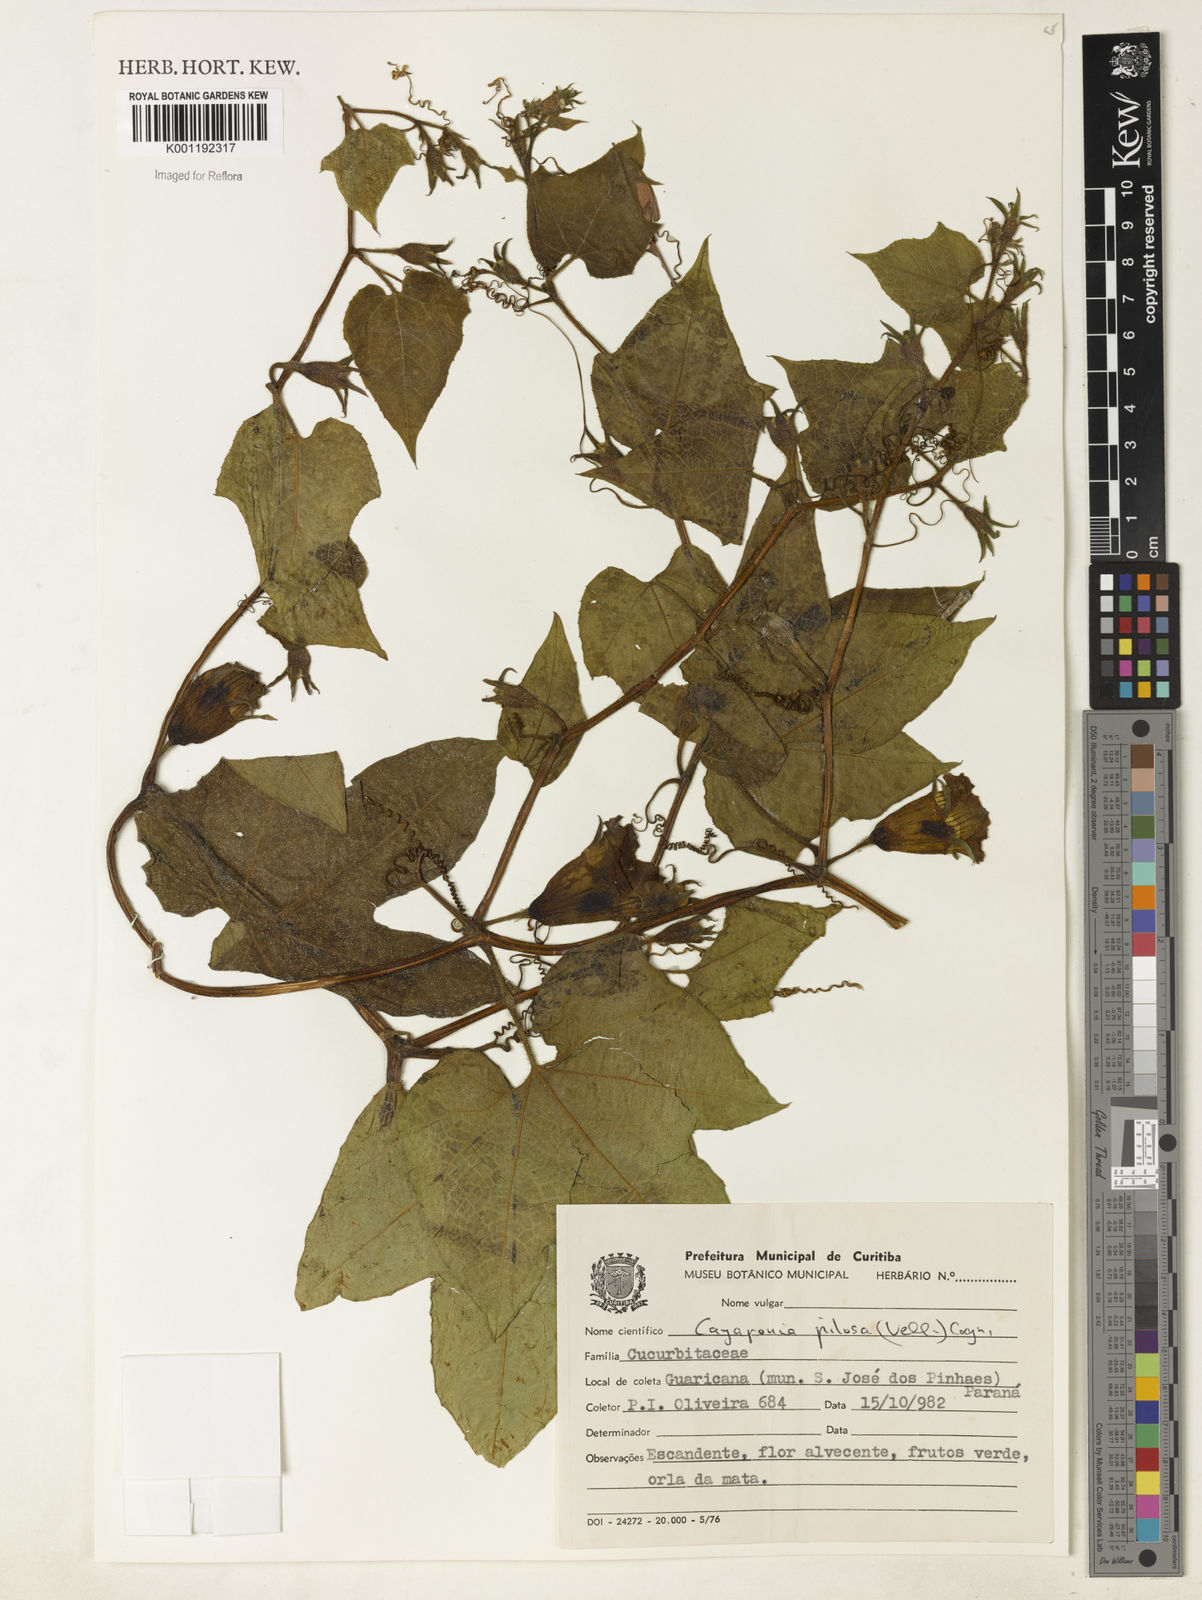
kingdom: Plantae
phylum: Tracheophyta
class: Magnoliopsida
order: Cucurbitales
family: Cucurbitaceae
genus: Cayaponia
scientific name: Cayaponia pilosa
